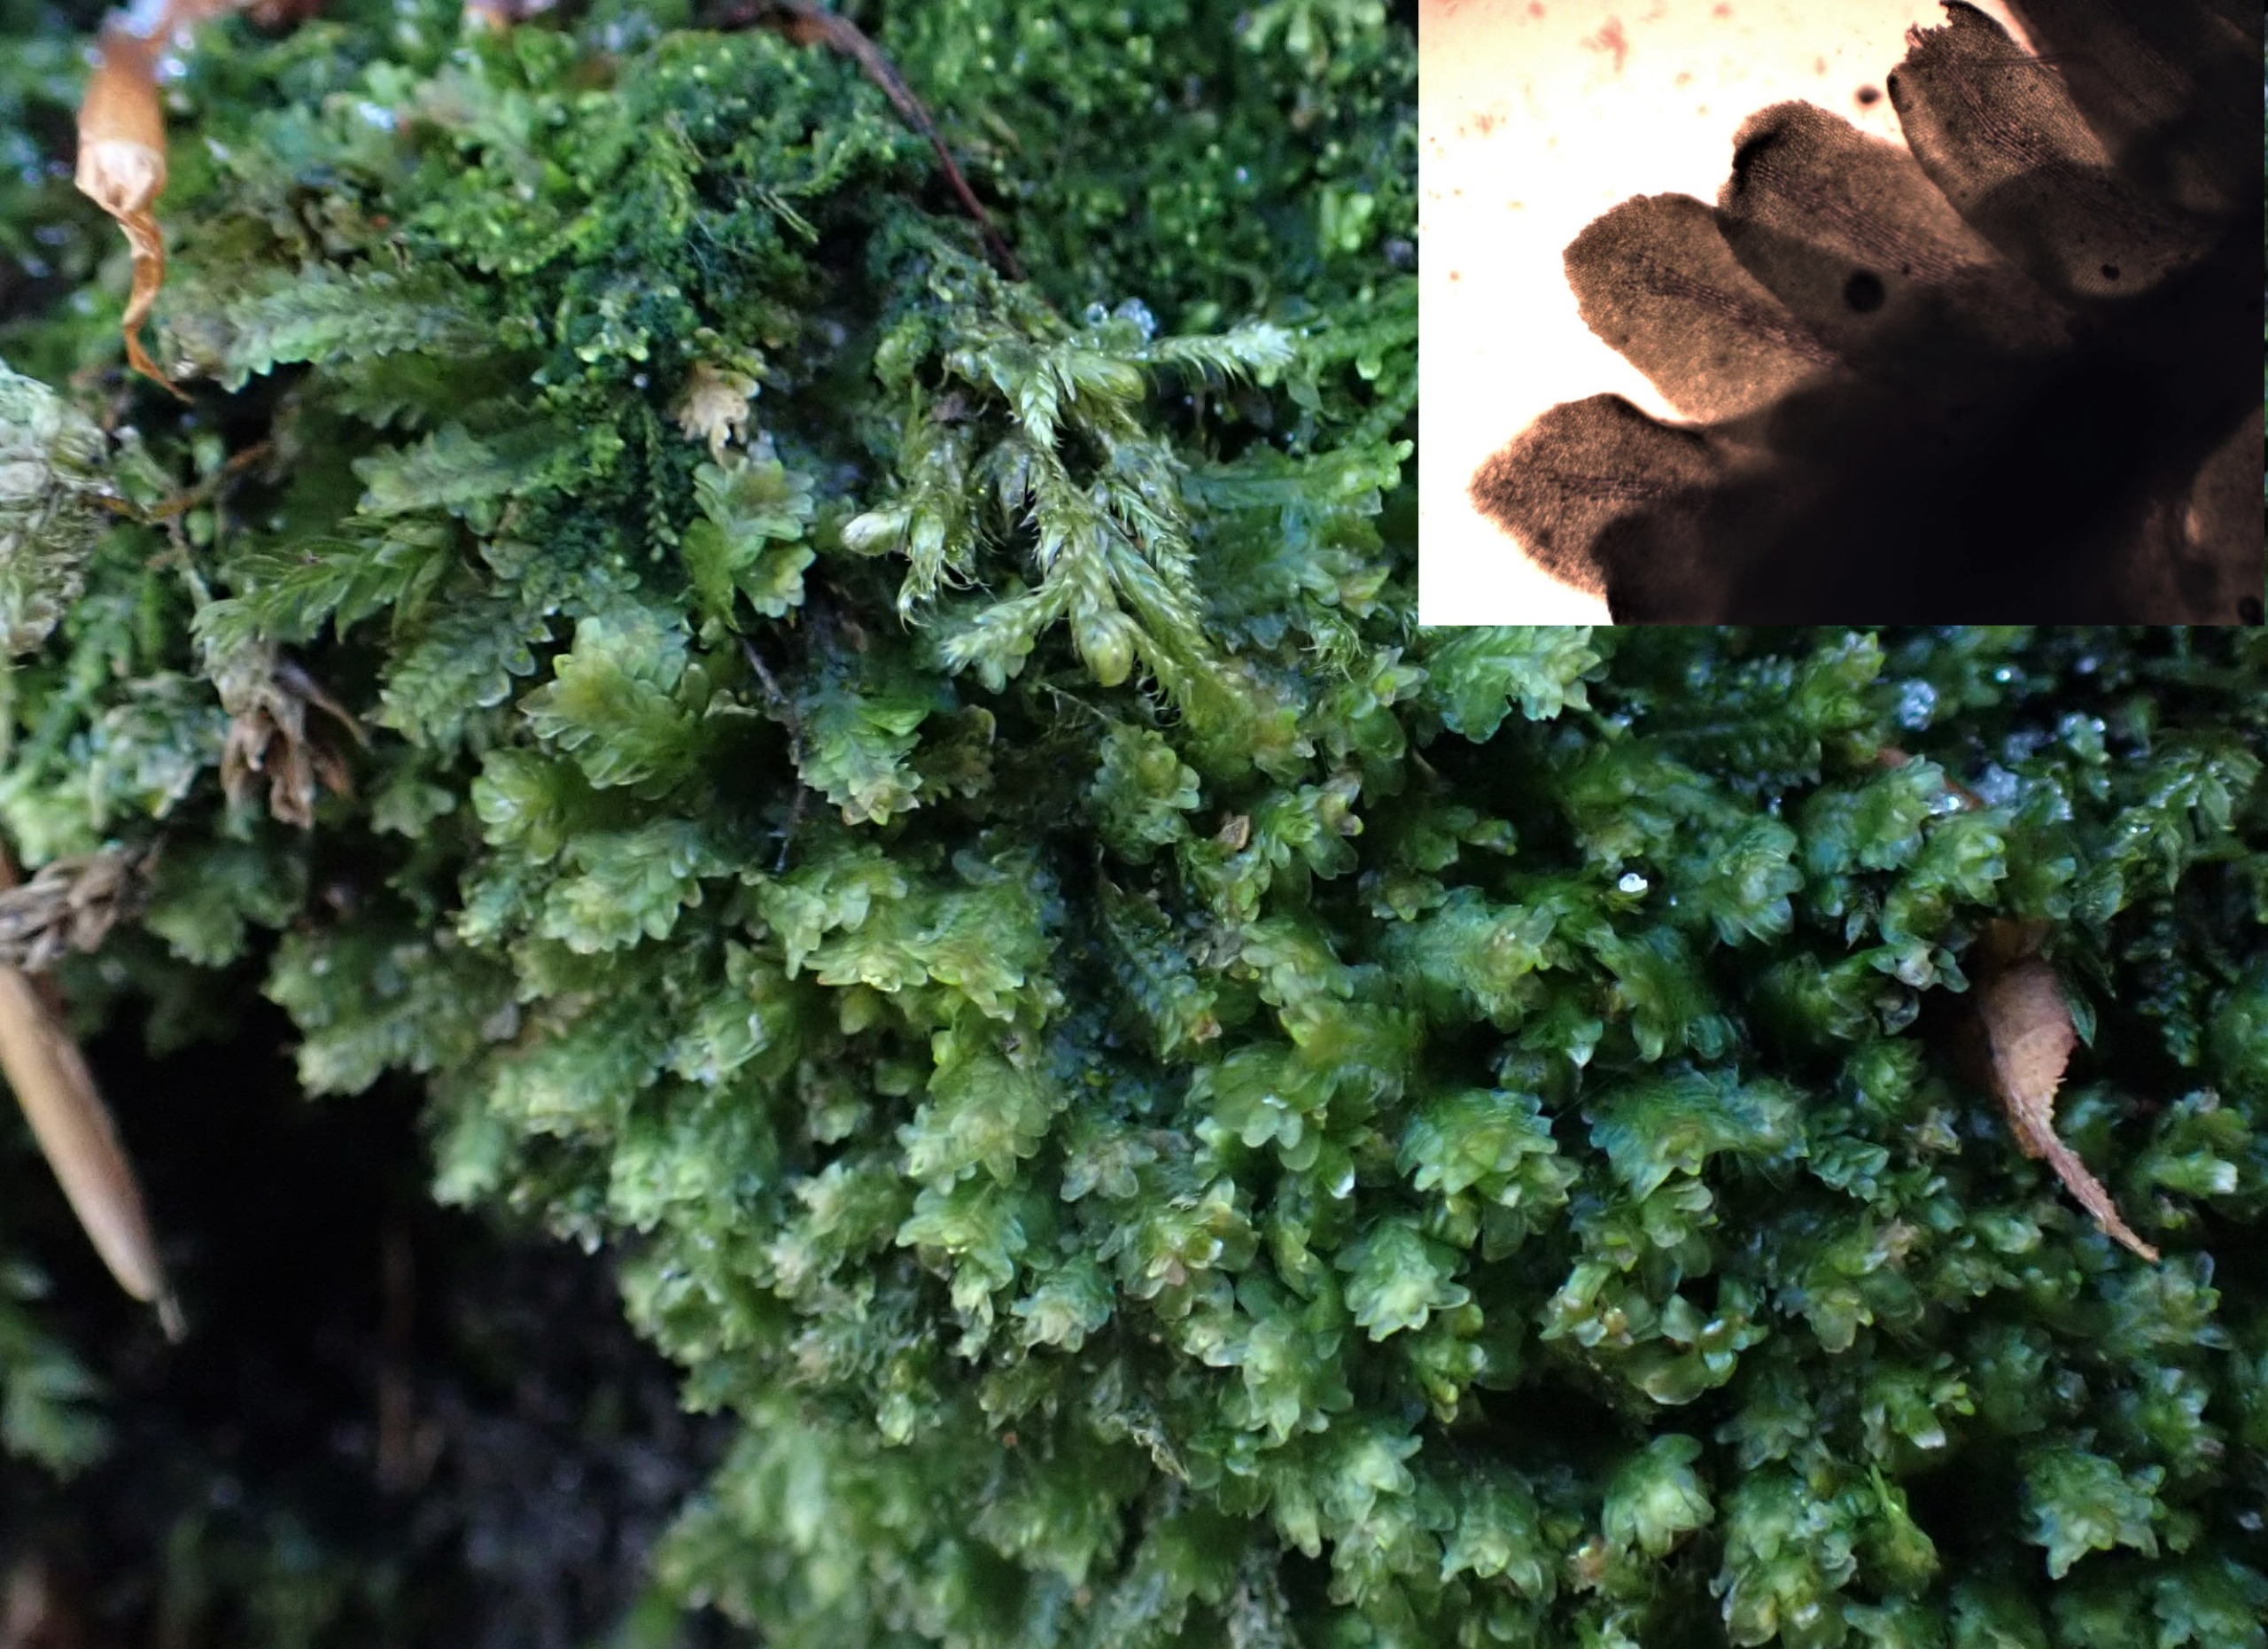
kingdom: Plantae
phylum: Marchantiophyta
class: Jungermanniopsida
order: Jungermanniales
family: Scapaniaceae
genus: Diplophyllum
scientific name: Diplophyllum albicans
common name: Stribet dobbeltblad
